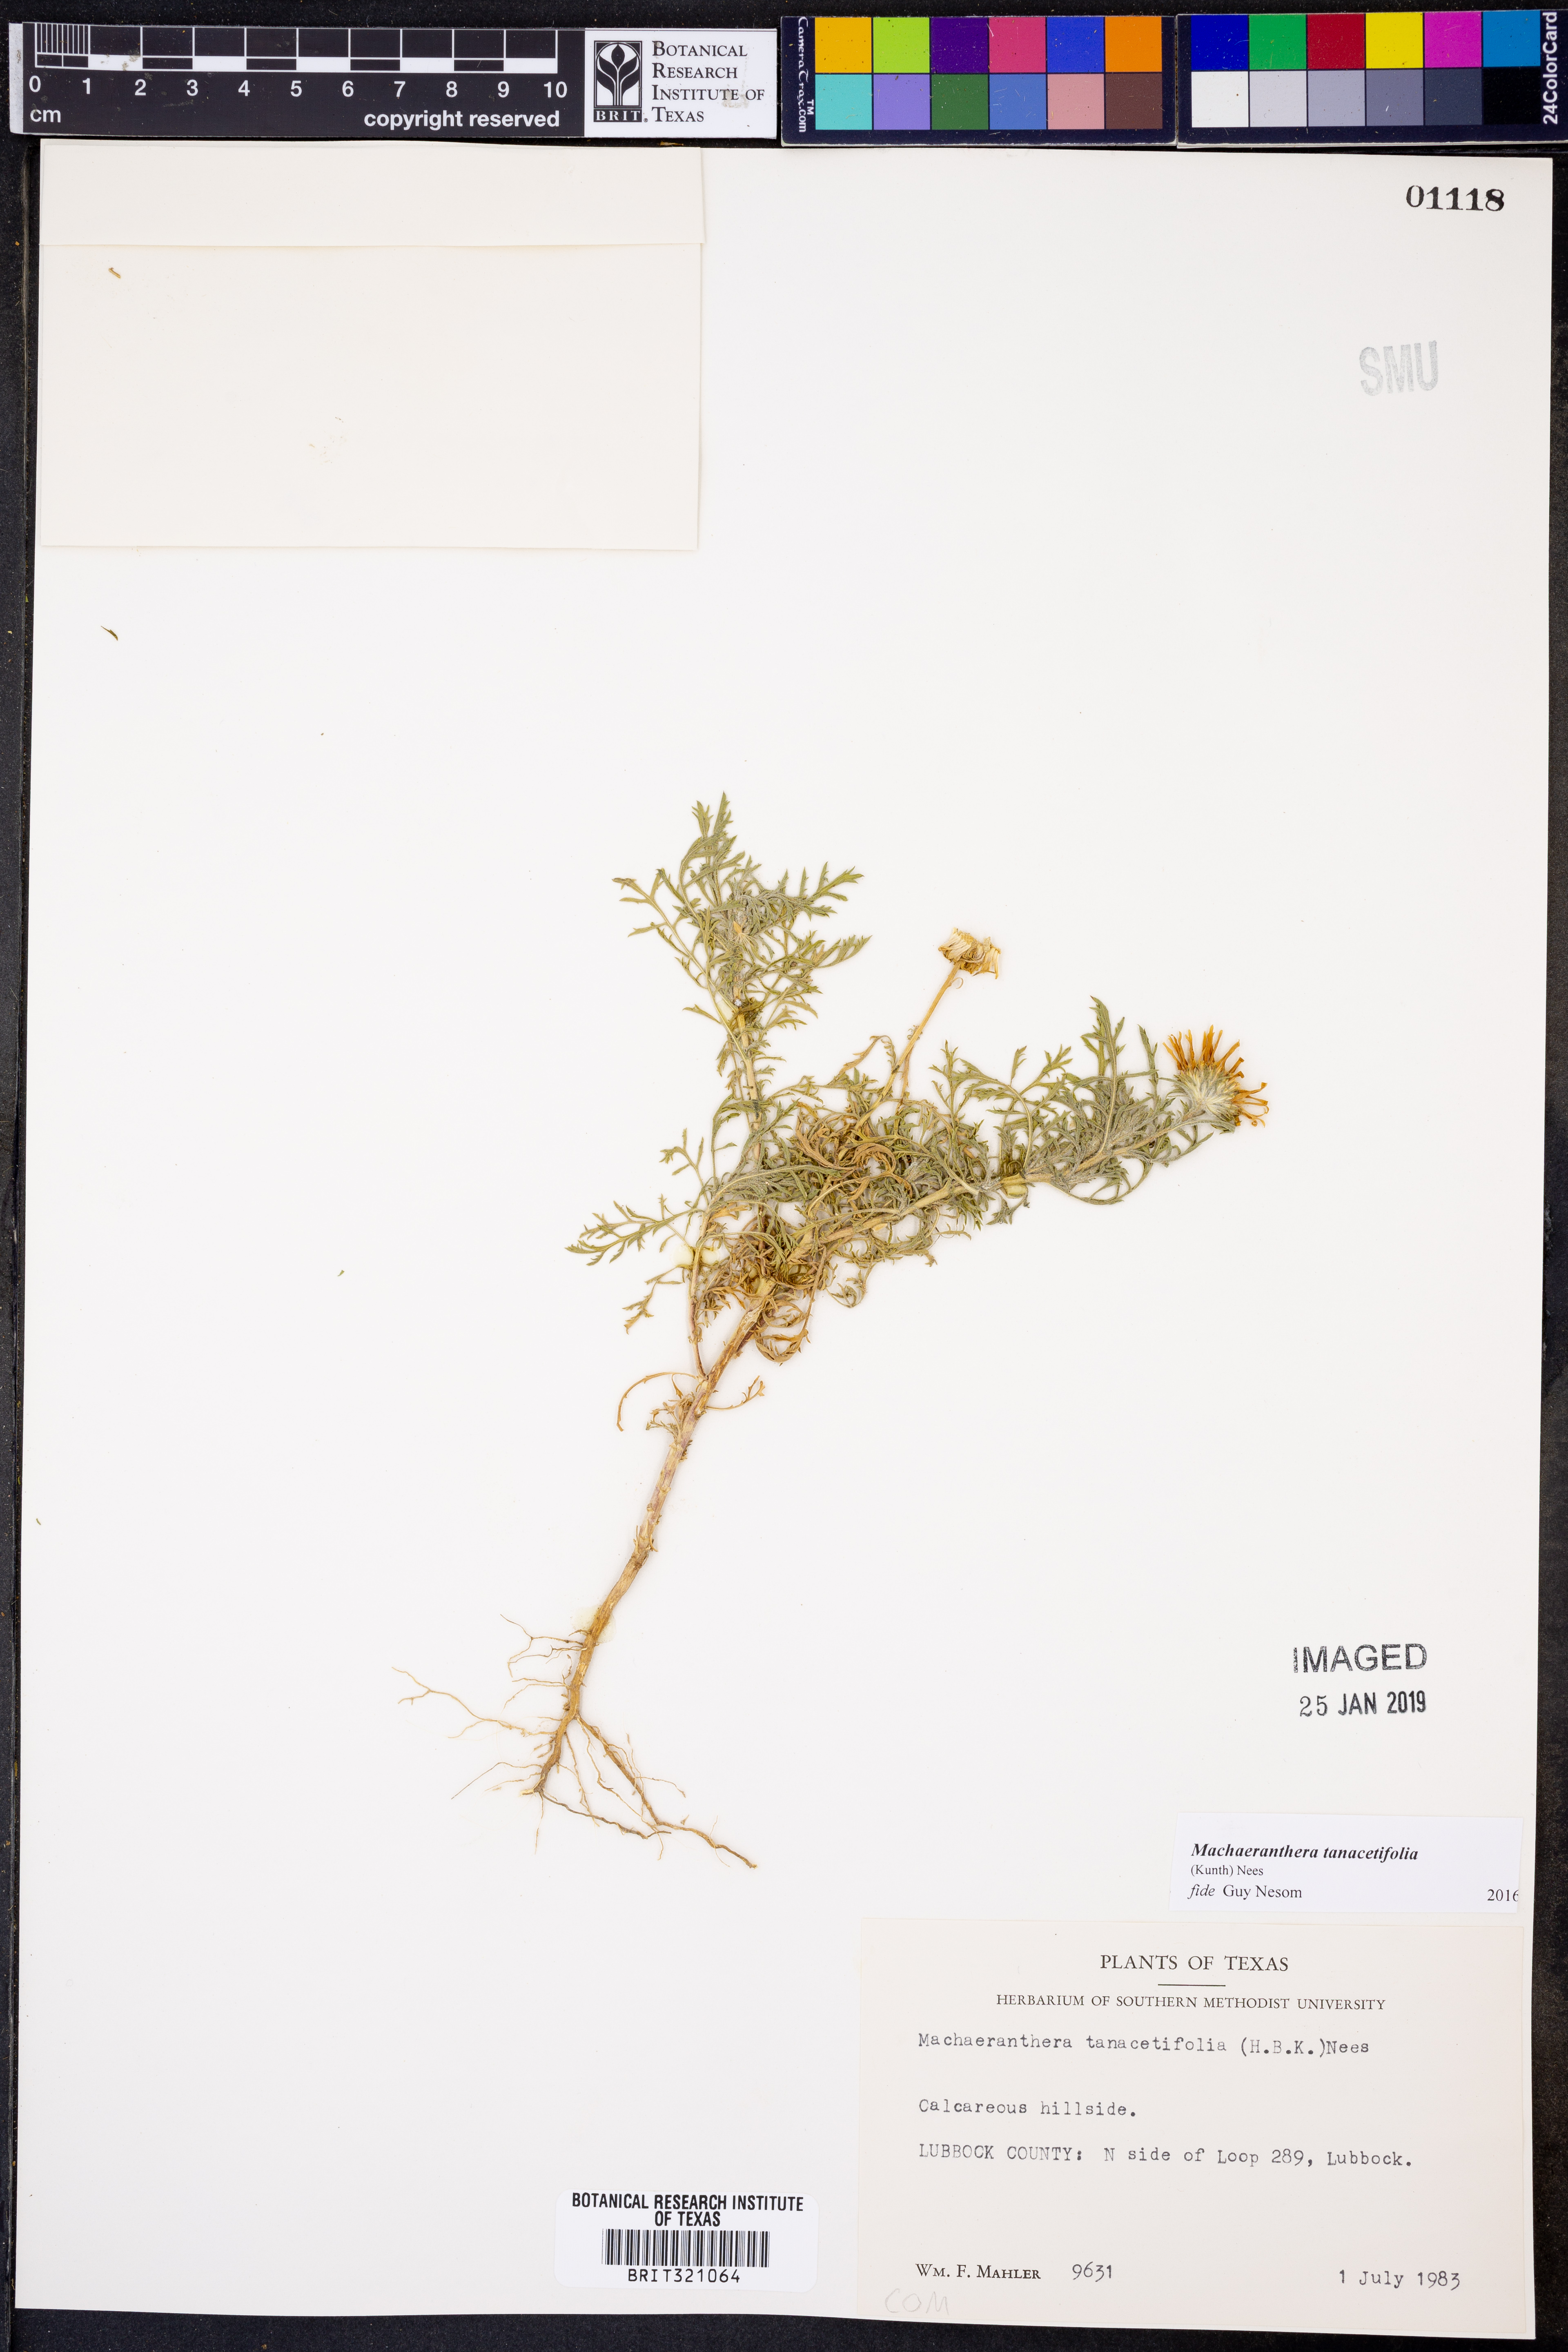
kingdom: Plantae
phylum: Tracheophyta
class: Magnoliopsida
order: Asterales
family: Asteraceae
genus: Machaeranthera
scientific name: Machaeranthera tanacetifolia
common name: Tansy-aster
